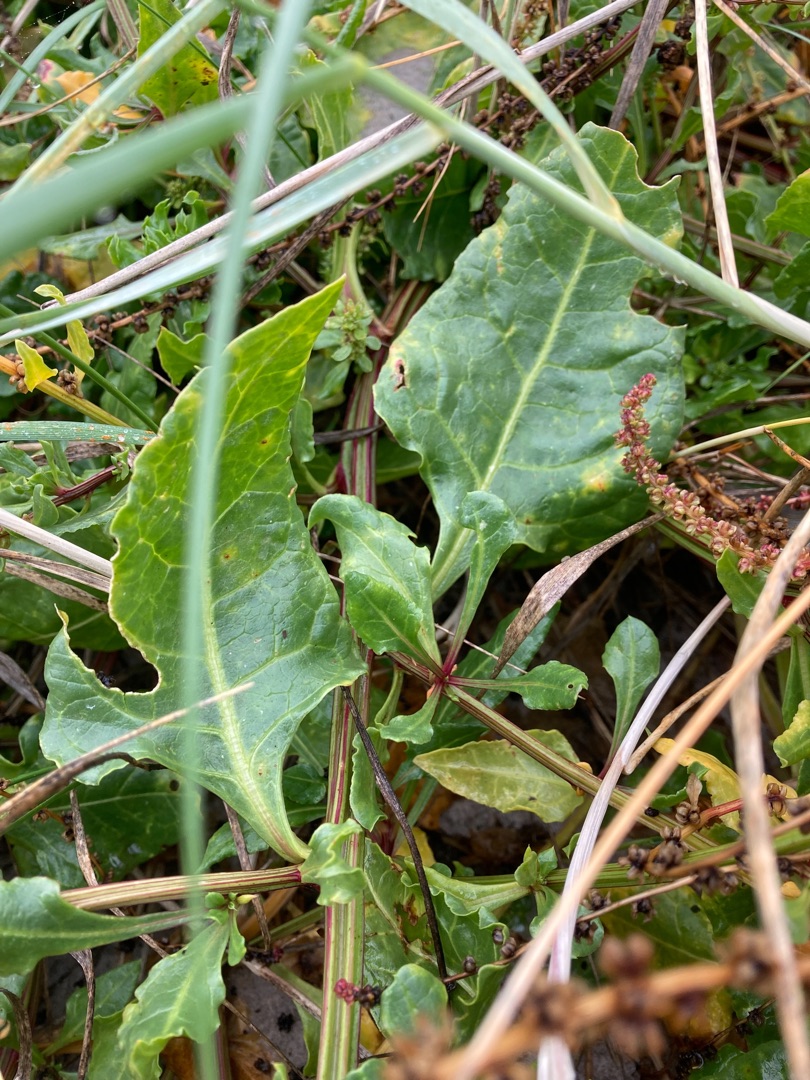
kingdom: Plantae
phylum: Tracheophyta
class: Magnoliopsida
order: Caryophyllales
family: Amaranthaceae
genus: Beta
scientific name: Beta maritima
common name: Strand-bede
